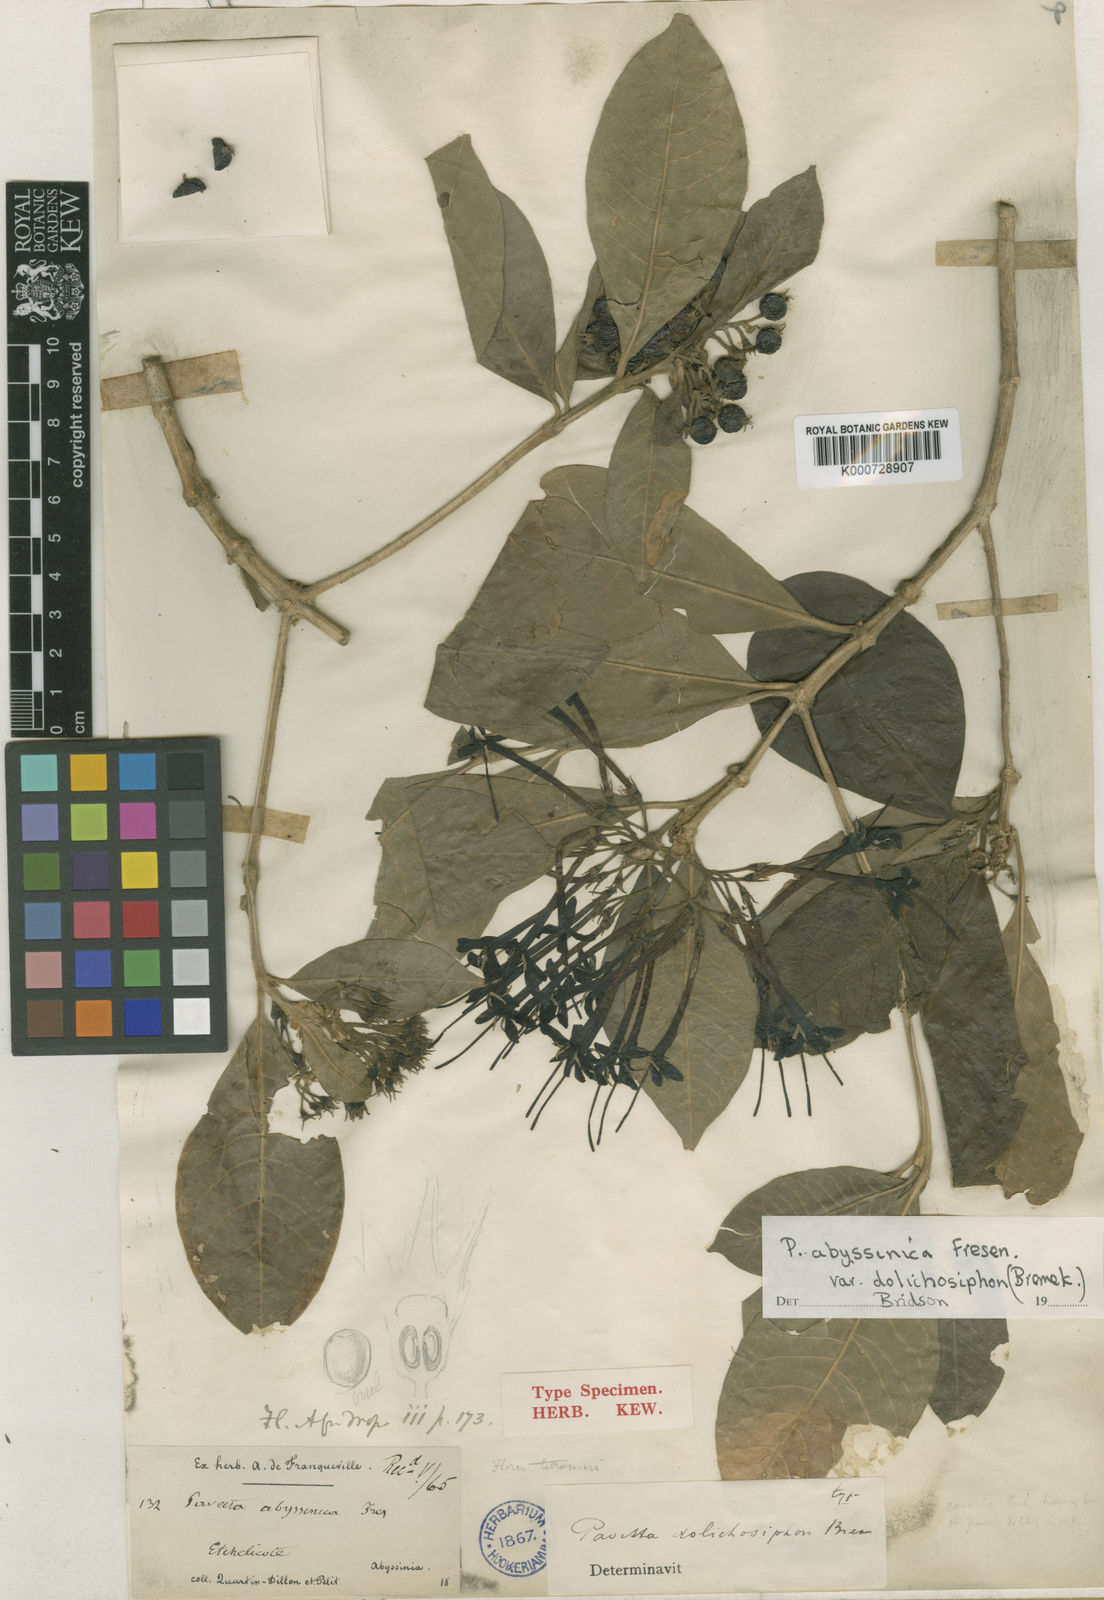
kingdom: Plantae
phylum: Tracheophyta
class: Magnoliopsida
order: Gentianales
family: Rubiaceae
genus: Pavetta
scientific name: Pavetta abyssinica
